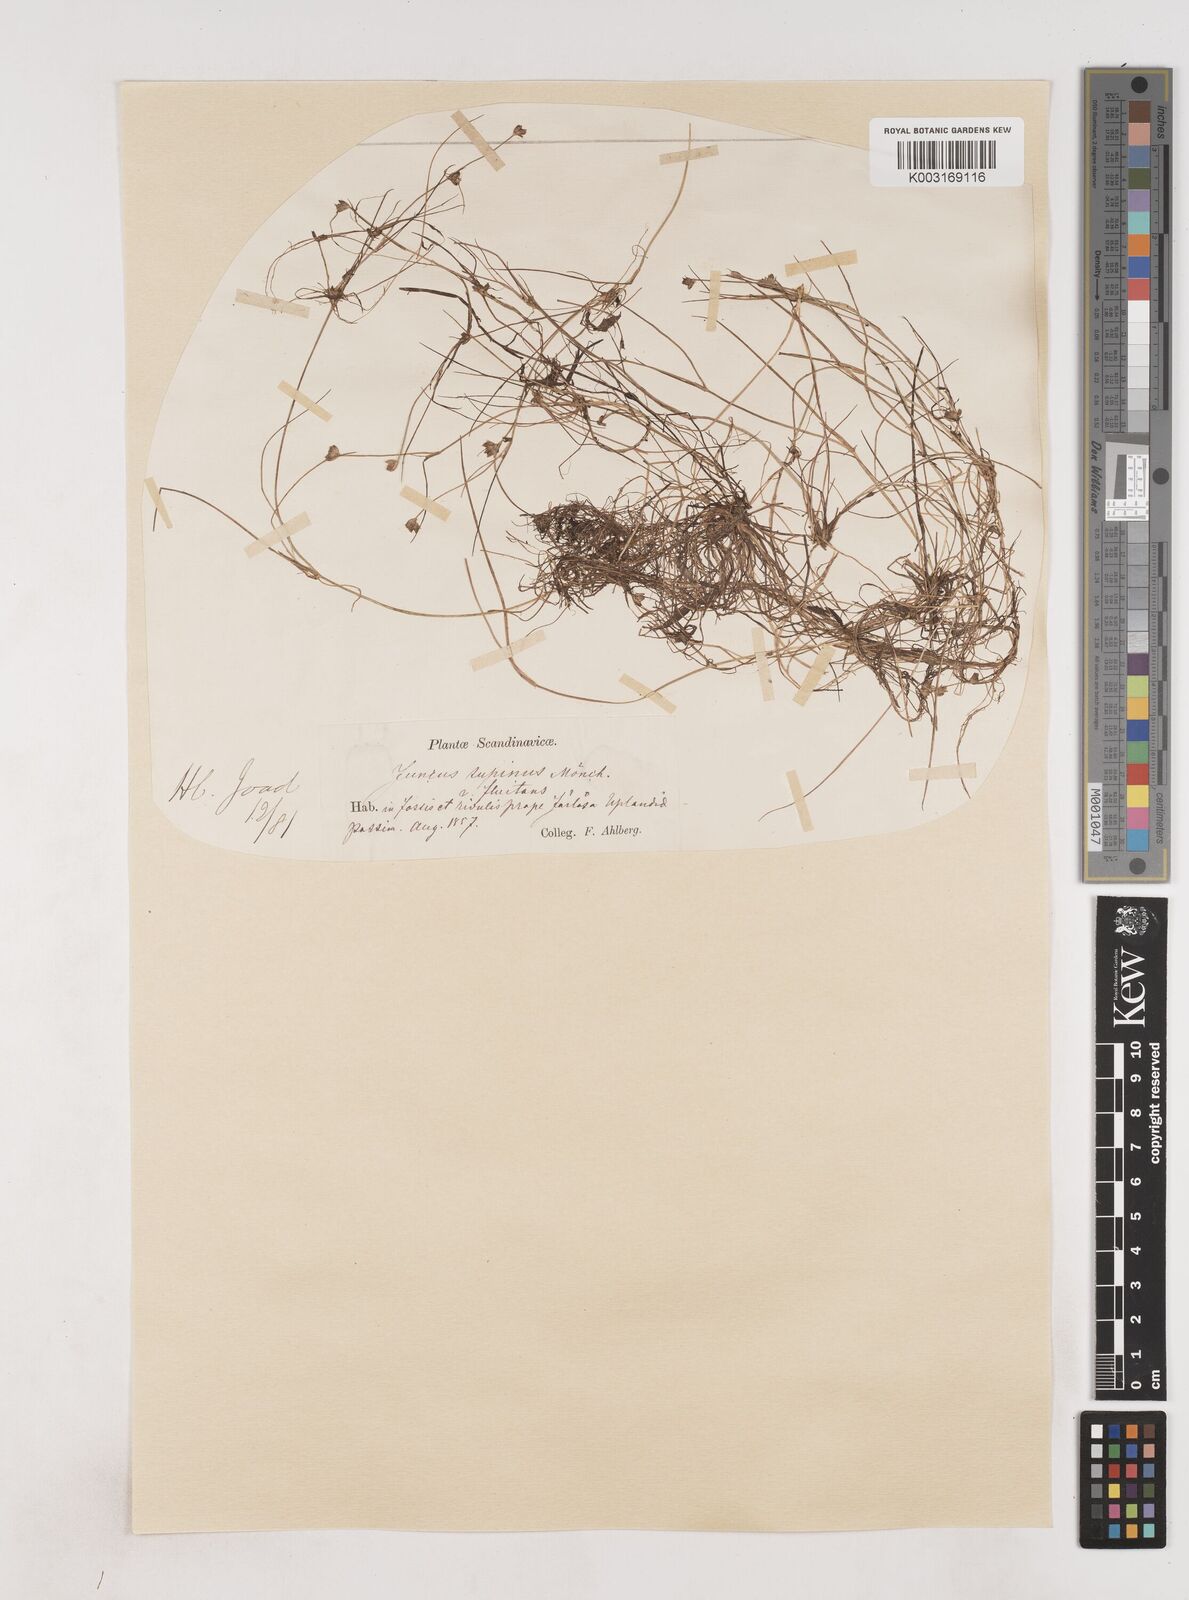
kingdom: Plantae
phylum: Tracheophyta
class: Liliopsida
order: Poales
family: Juncaceae
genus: Juncus
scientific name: Juncus bulbosus
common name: Bulbous rush
